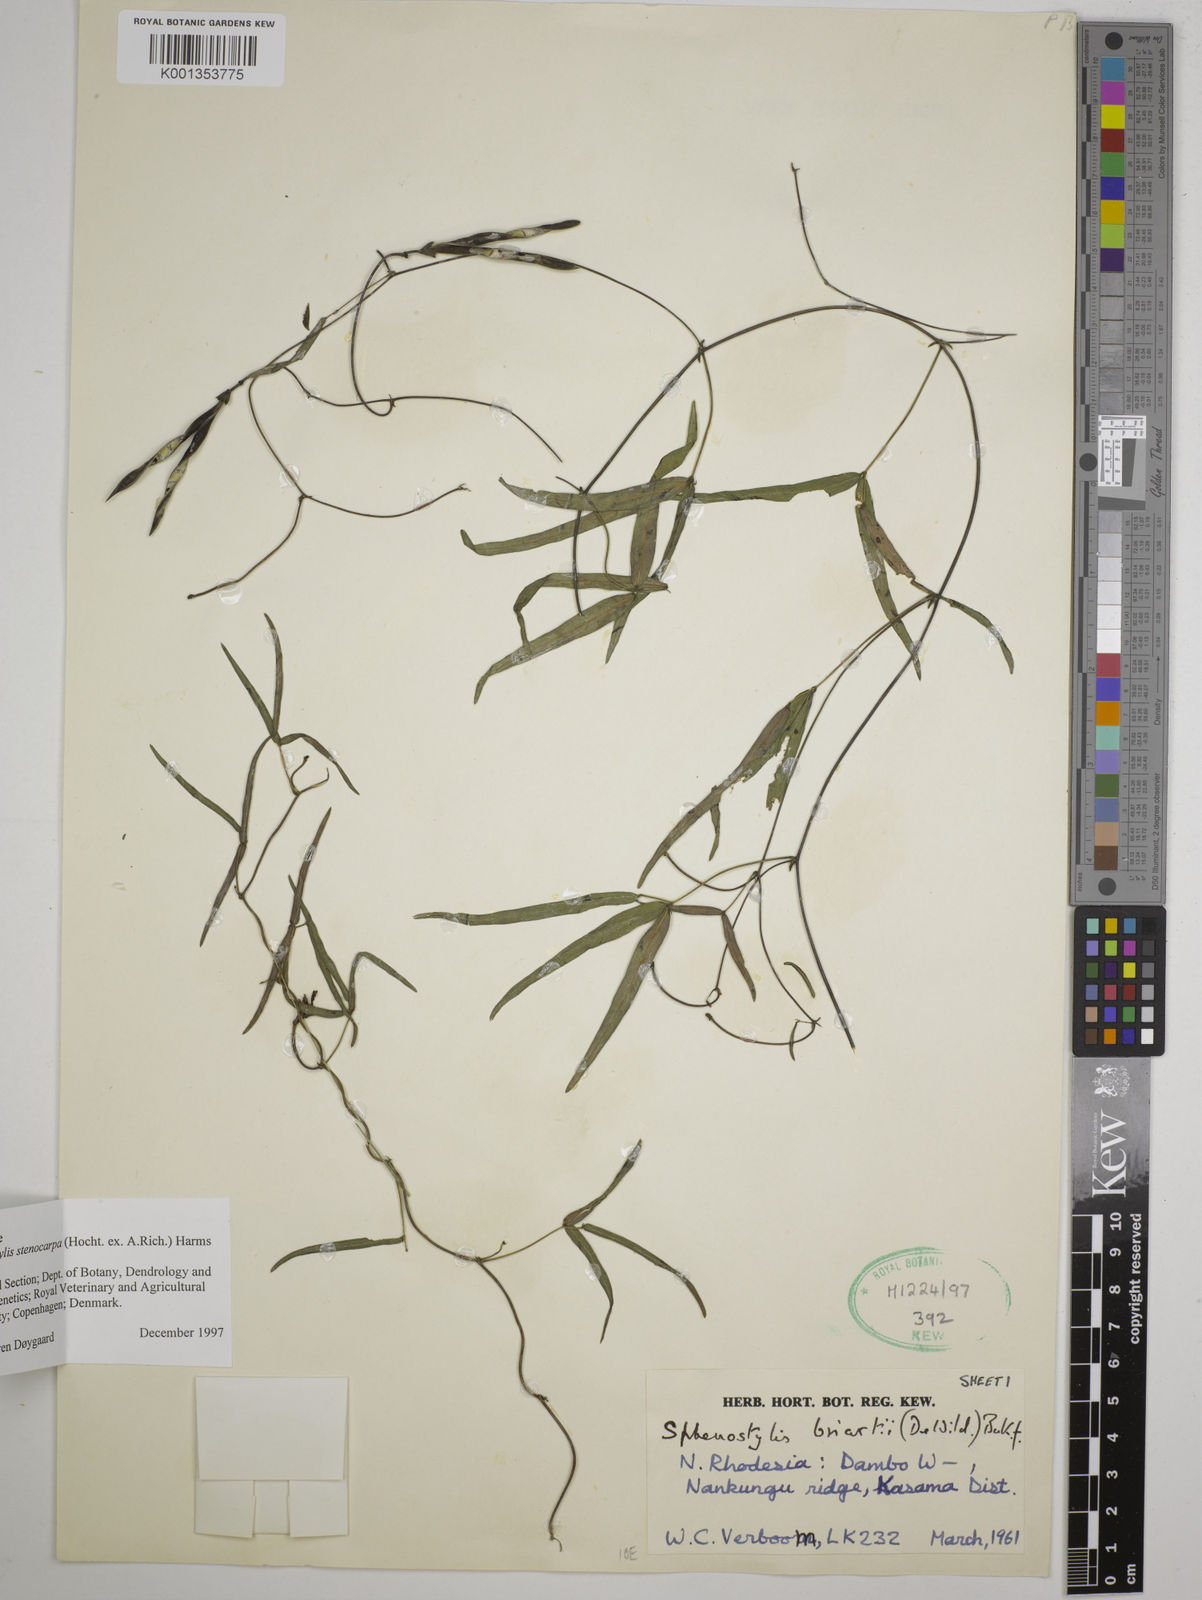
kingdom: Plantae
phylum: Tracheophyta
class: Magnoliopsida
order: Fabales
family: Fabaceae
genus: Sphenostylis
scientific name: Sphenostylis stenocarpa
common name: Yam-pea
